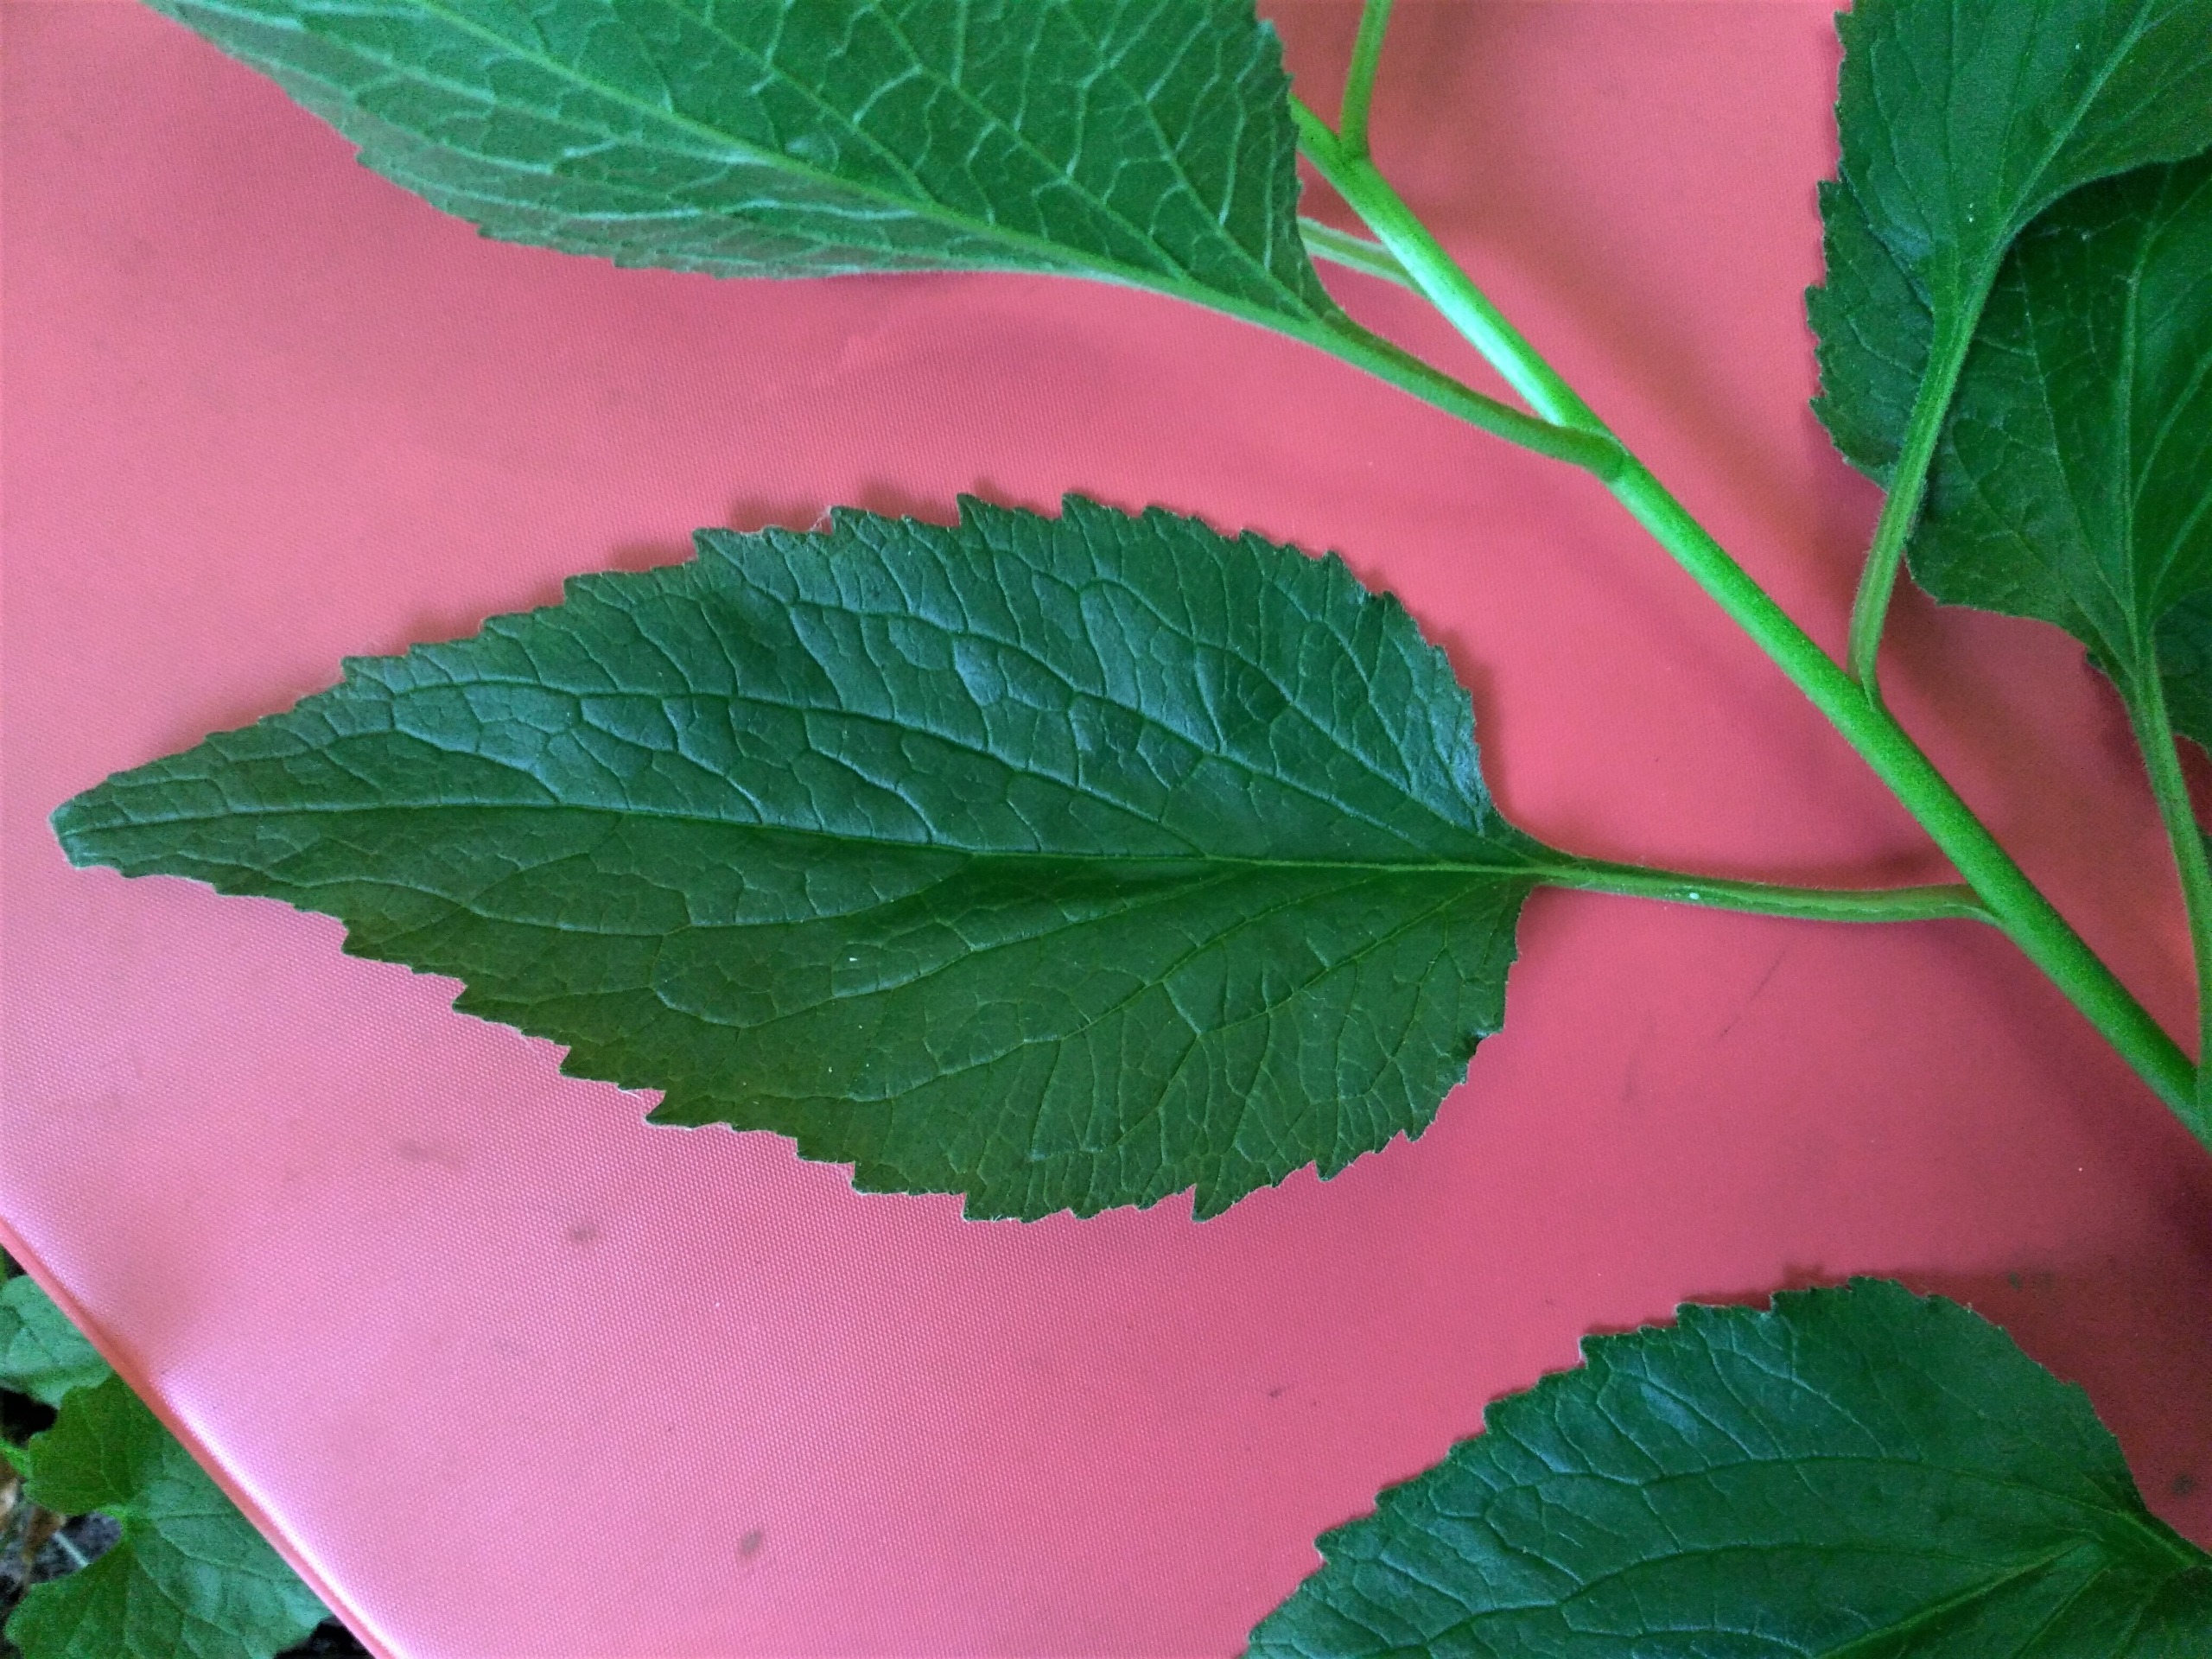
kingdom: Plantae
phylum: Tracheophyta
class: Magnoliopsida
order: Asterales
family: Campanulaceae
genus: Campanula
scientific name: Campanula latifolia
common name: Bredbladet klokke
